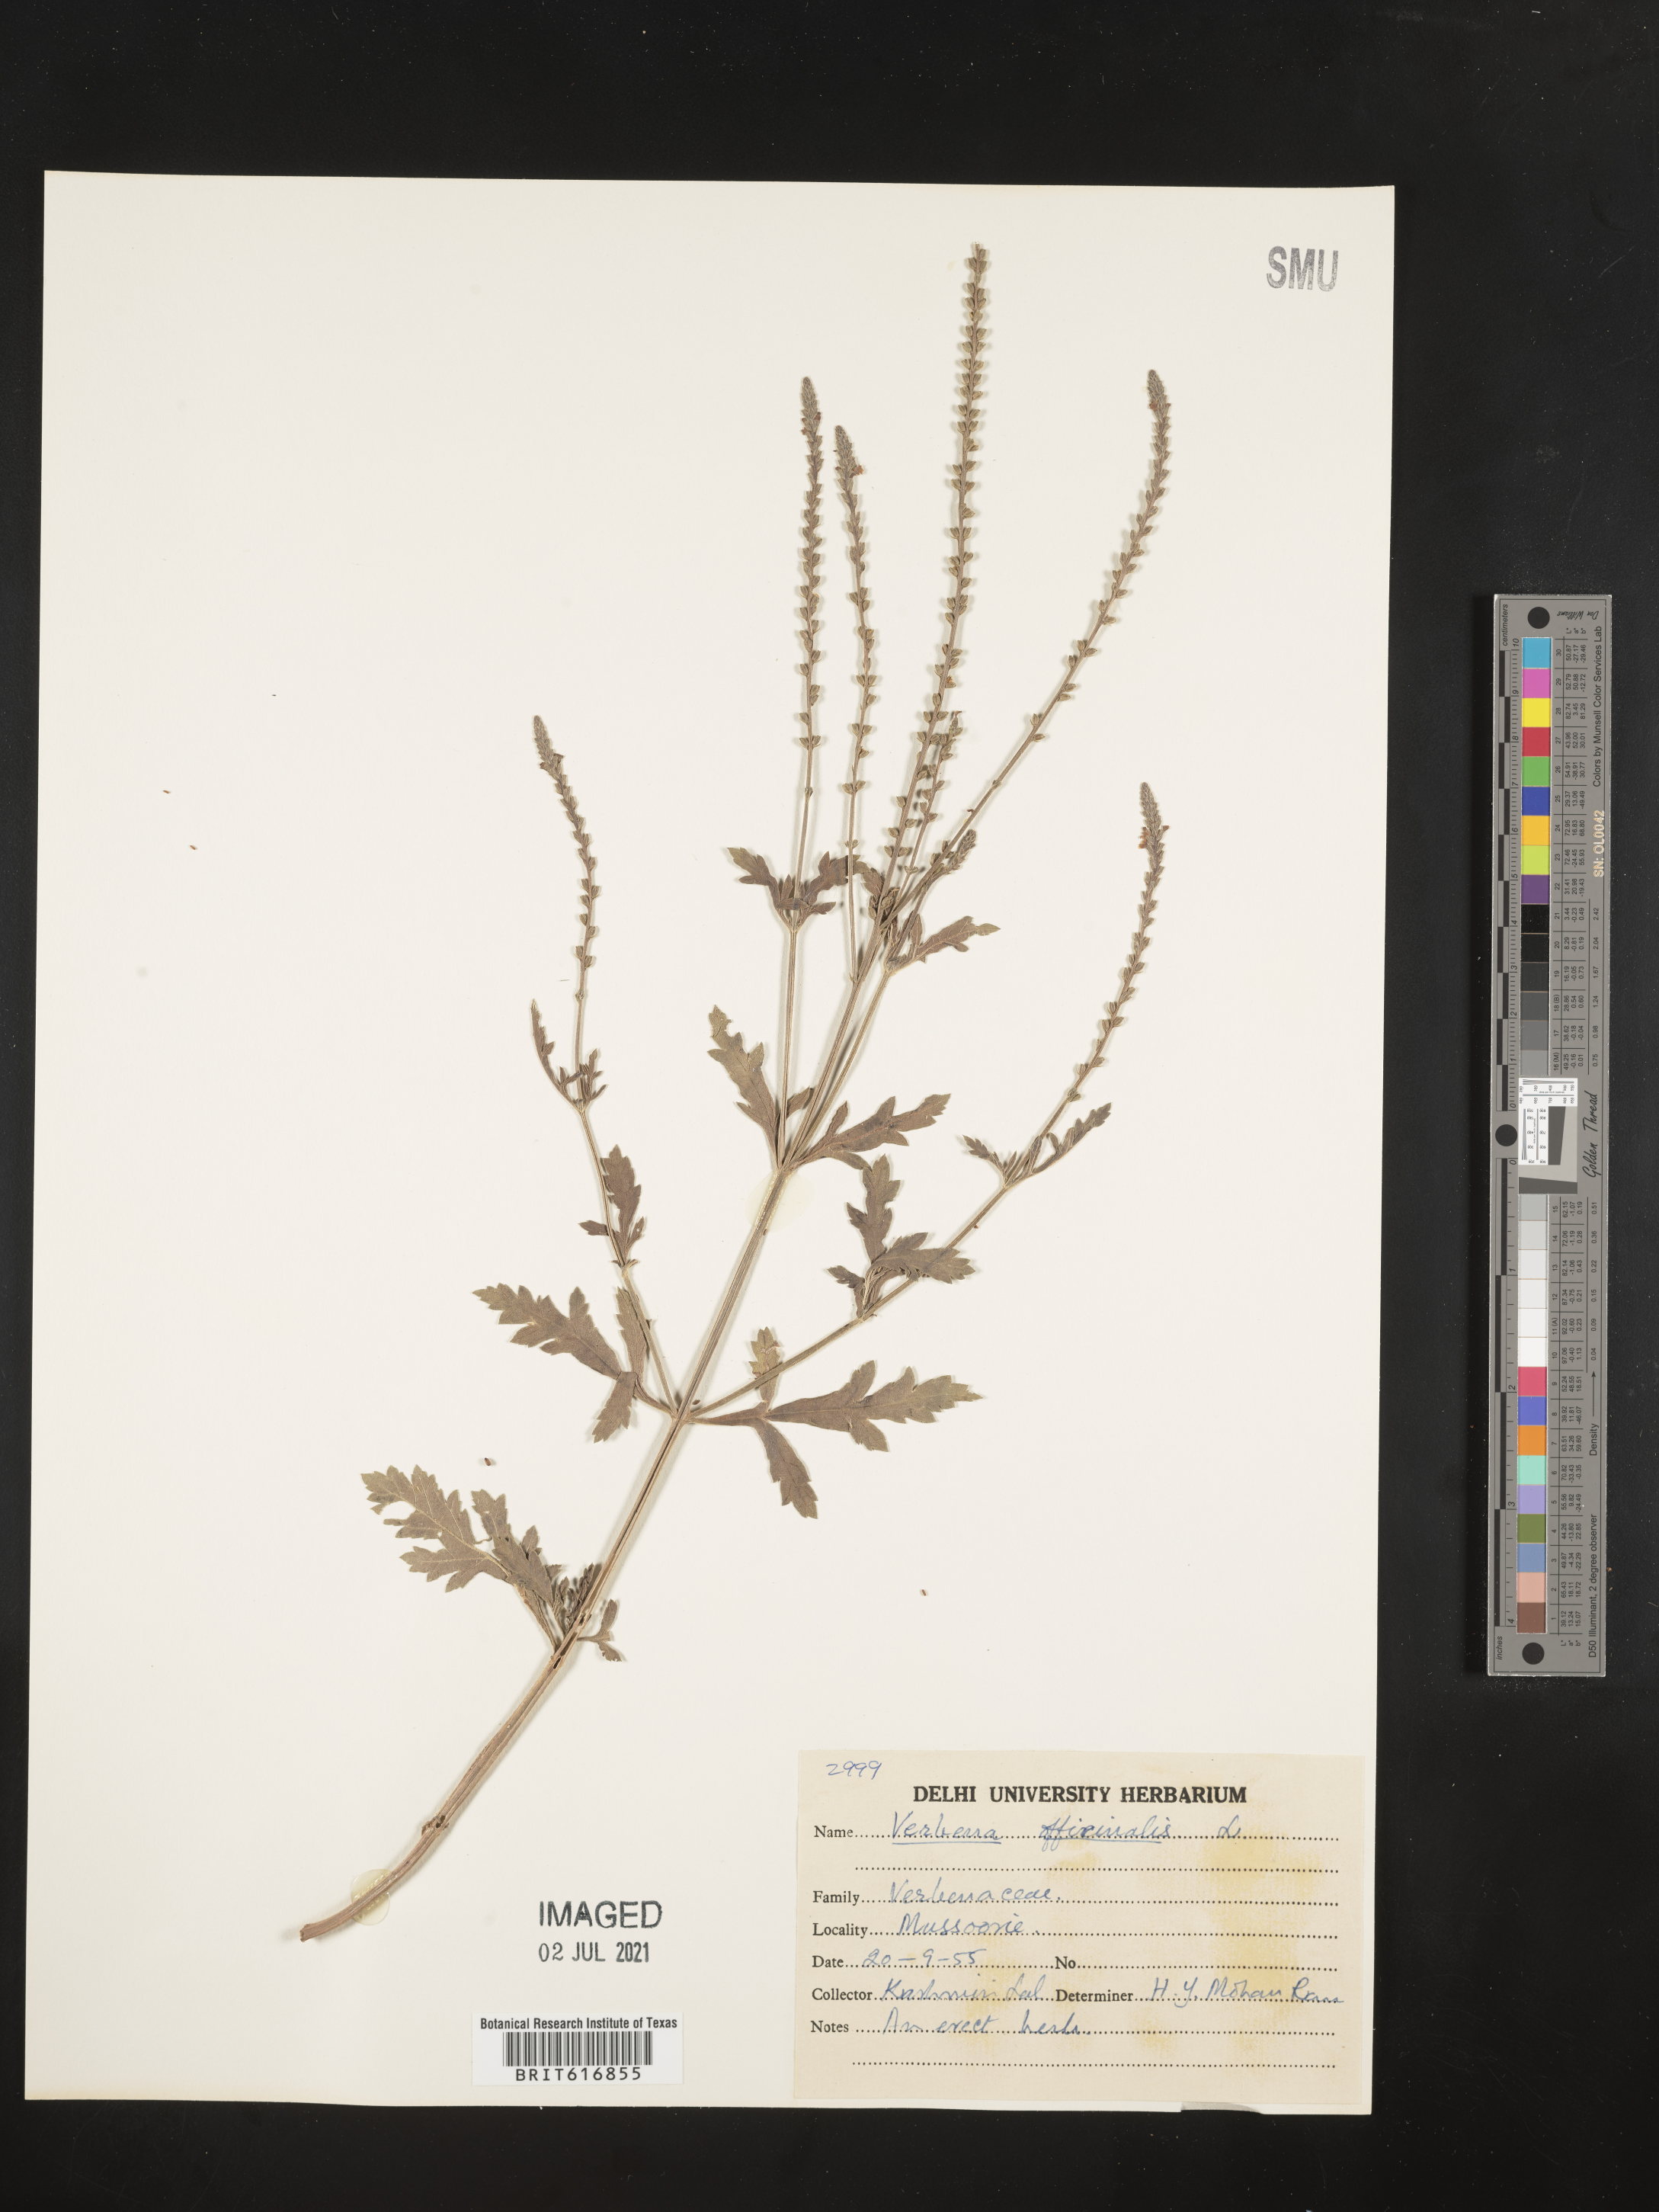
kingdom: Plantae
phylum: Tracheophyta
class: Magnoliopsida
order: Lamiales
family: Verbenaceae
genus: Verbena
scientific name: Verbena officinalis
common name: Vervain
